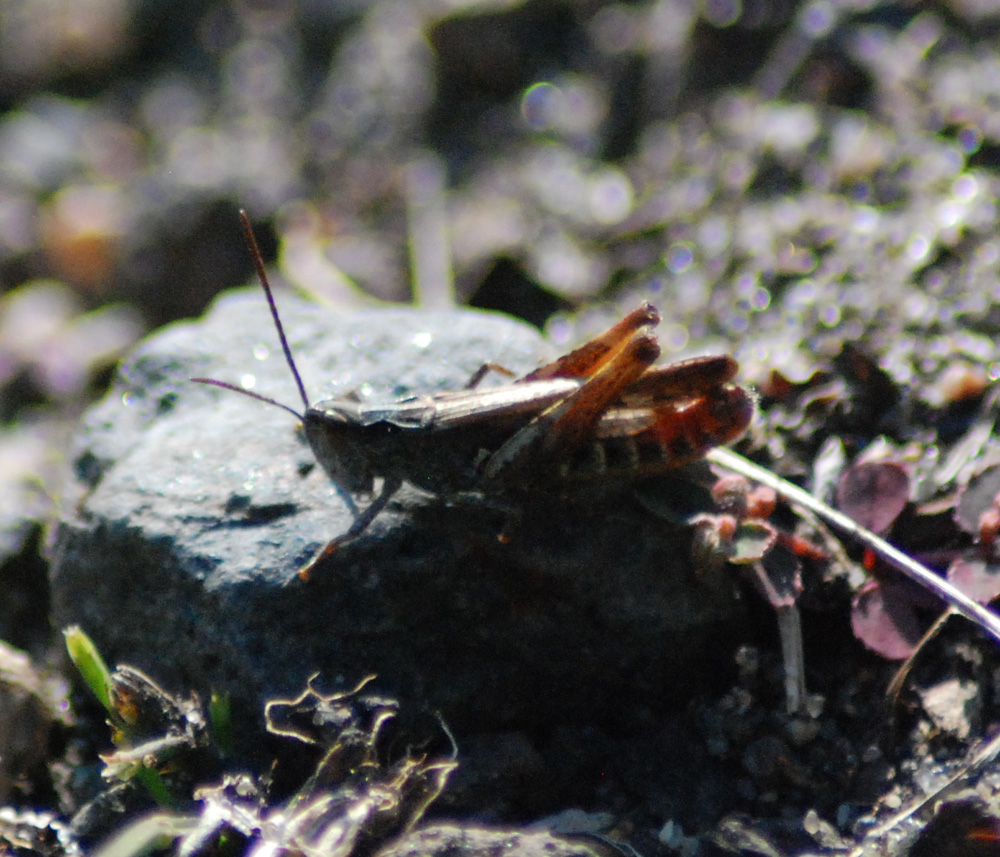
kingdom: Animalia
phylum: Arthropoda
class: Insecta
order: Orthoptera
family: Acrididae
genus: Chorthippus
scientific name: Chorthippus biguttulus
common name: Bow-winged grasshopper
